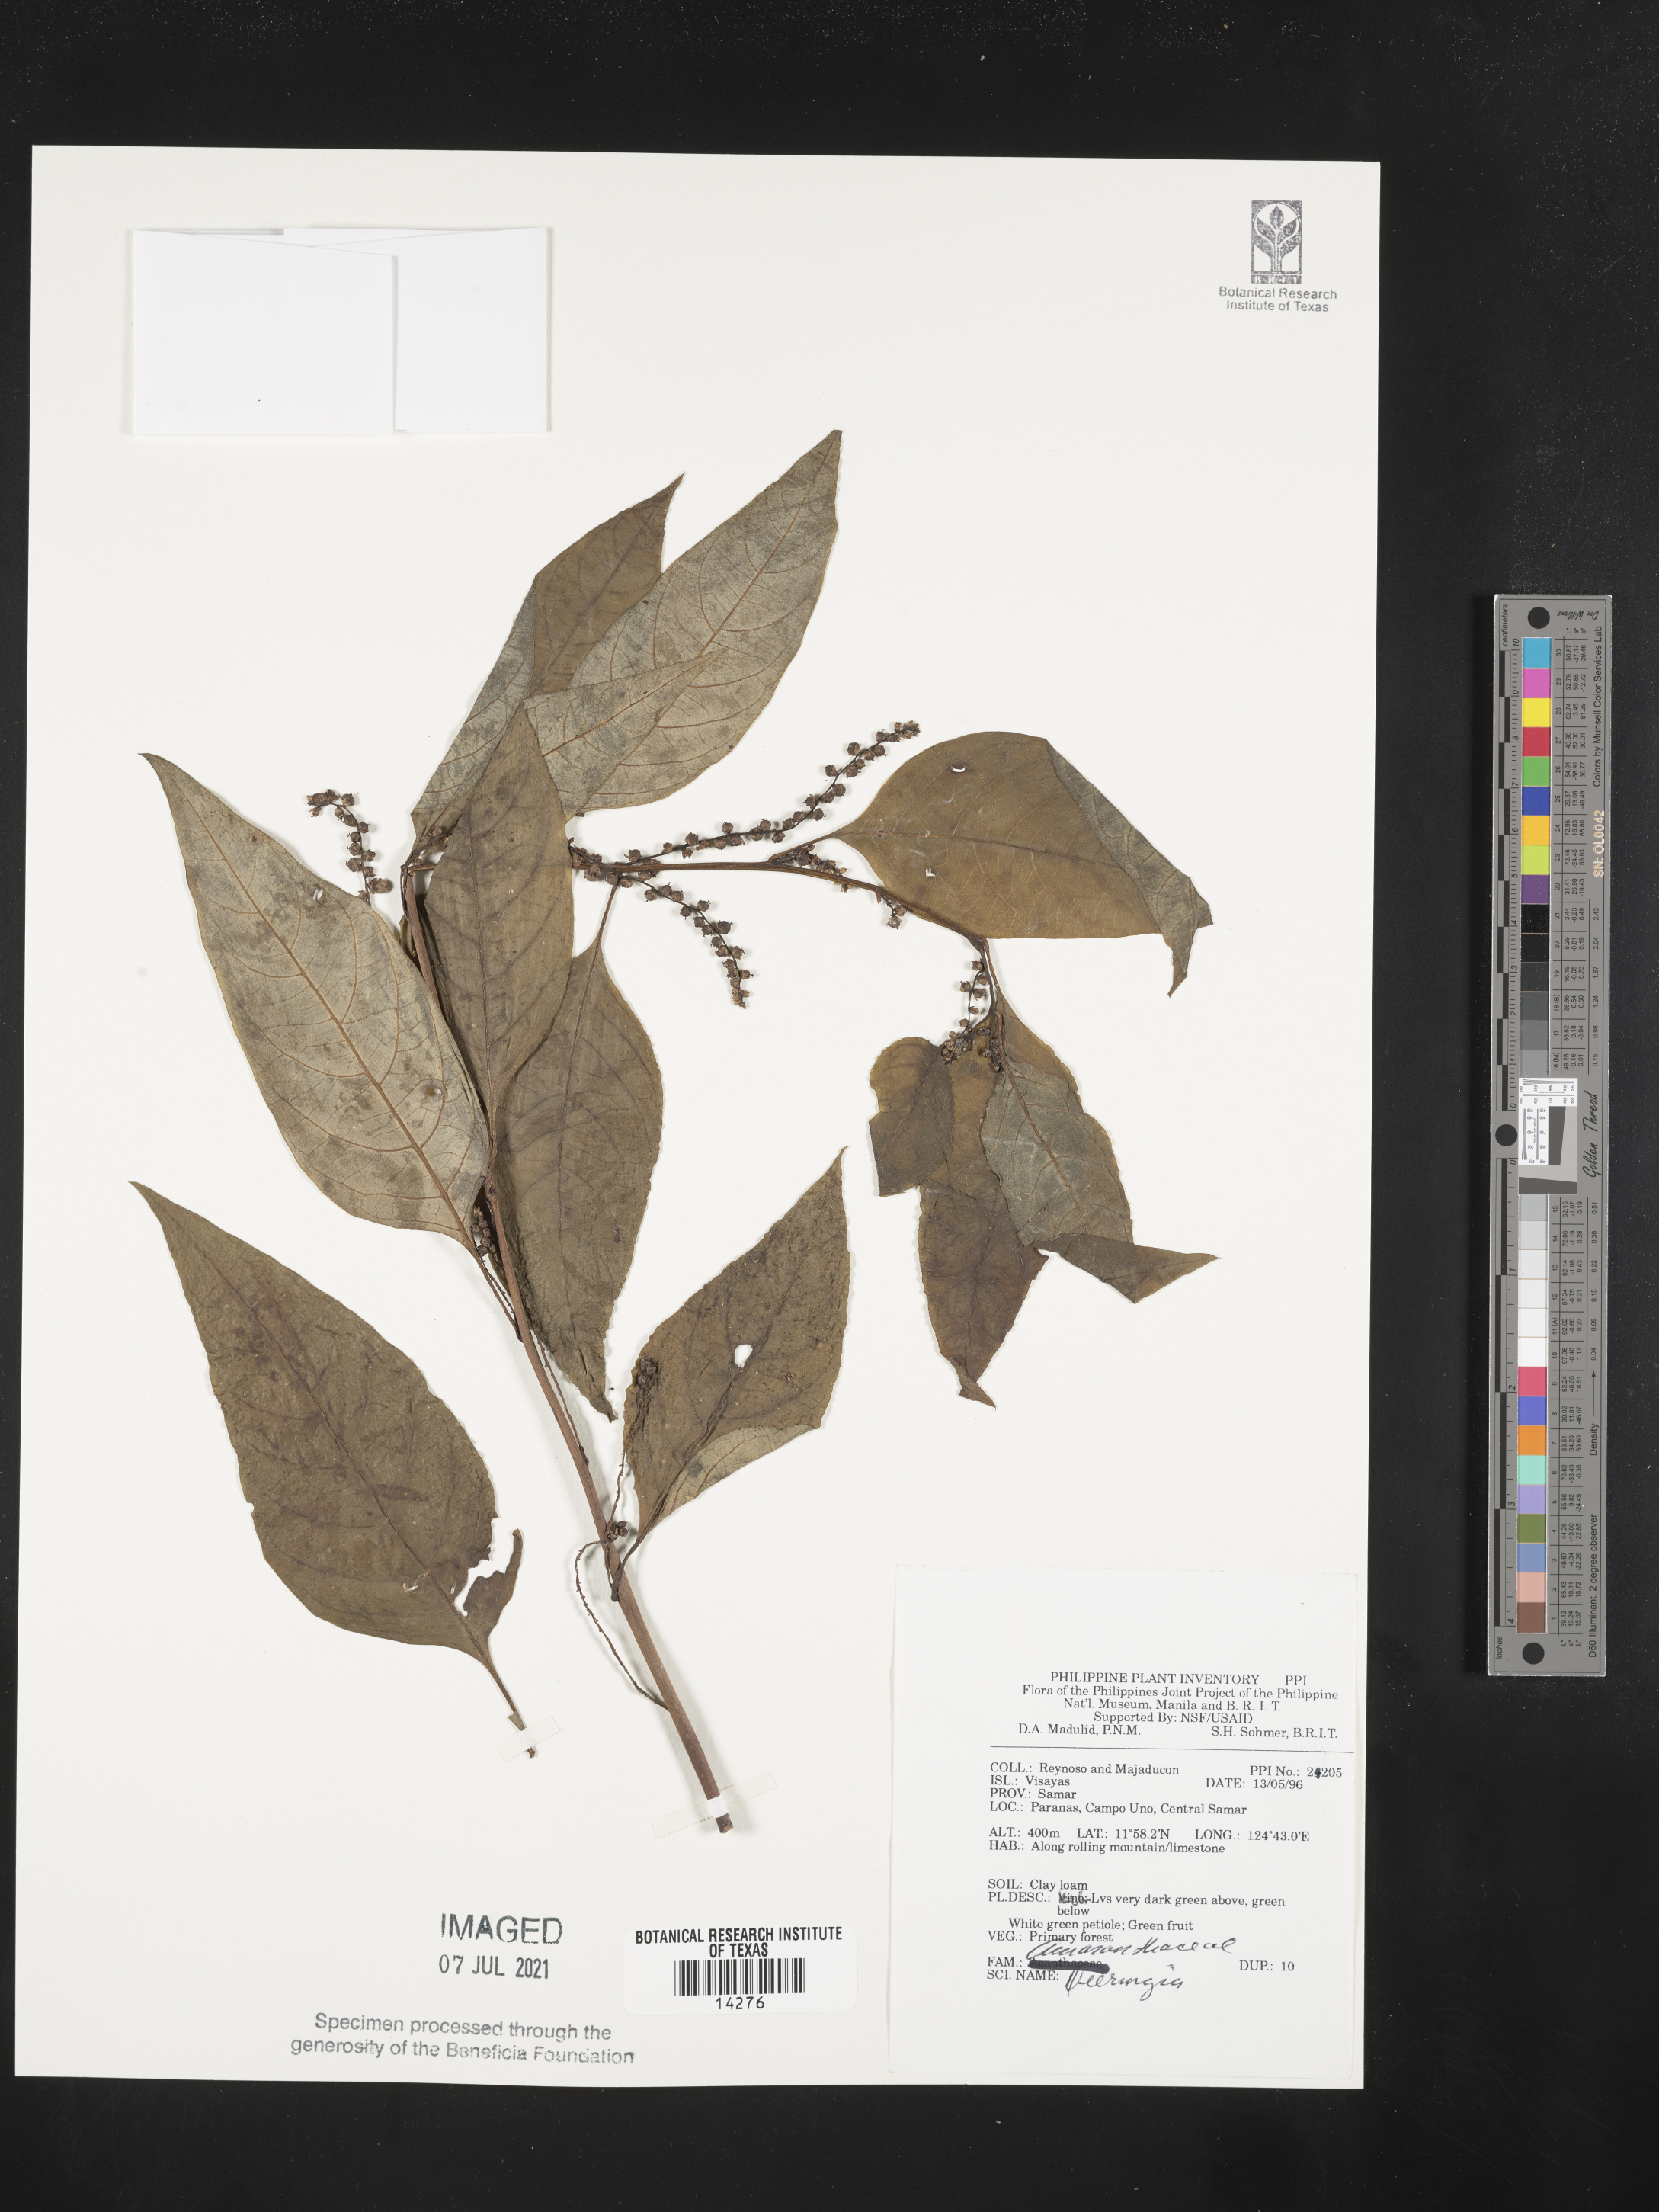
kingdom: Plantae
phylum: Tracheophyta
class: Magnoliopsida
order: Caryophyllales
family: Amaranthaceae
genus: Deeringia
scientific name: Deeringia
